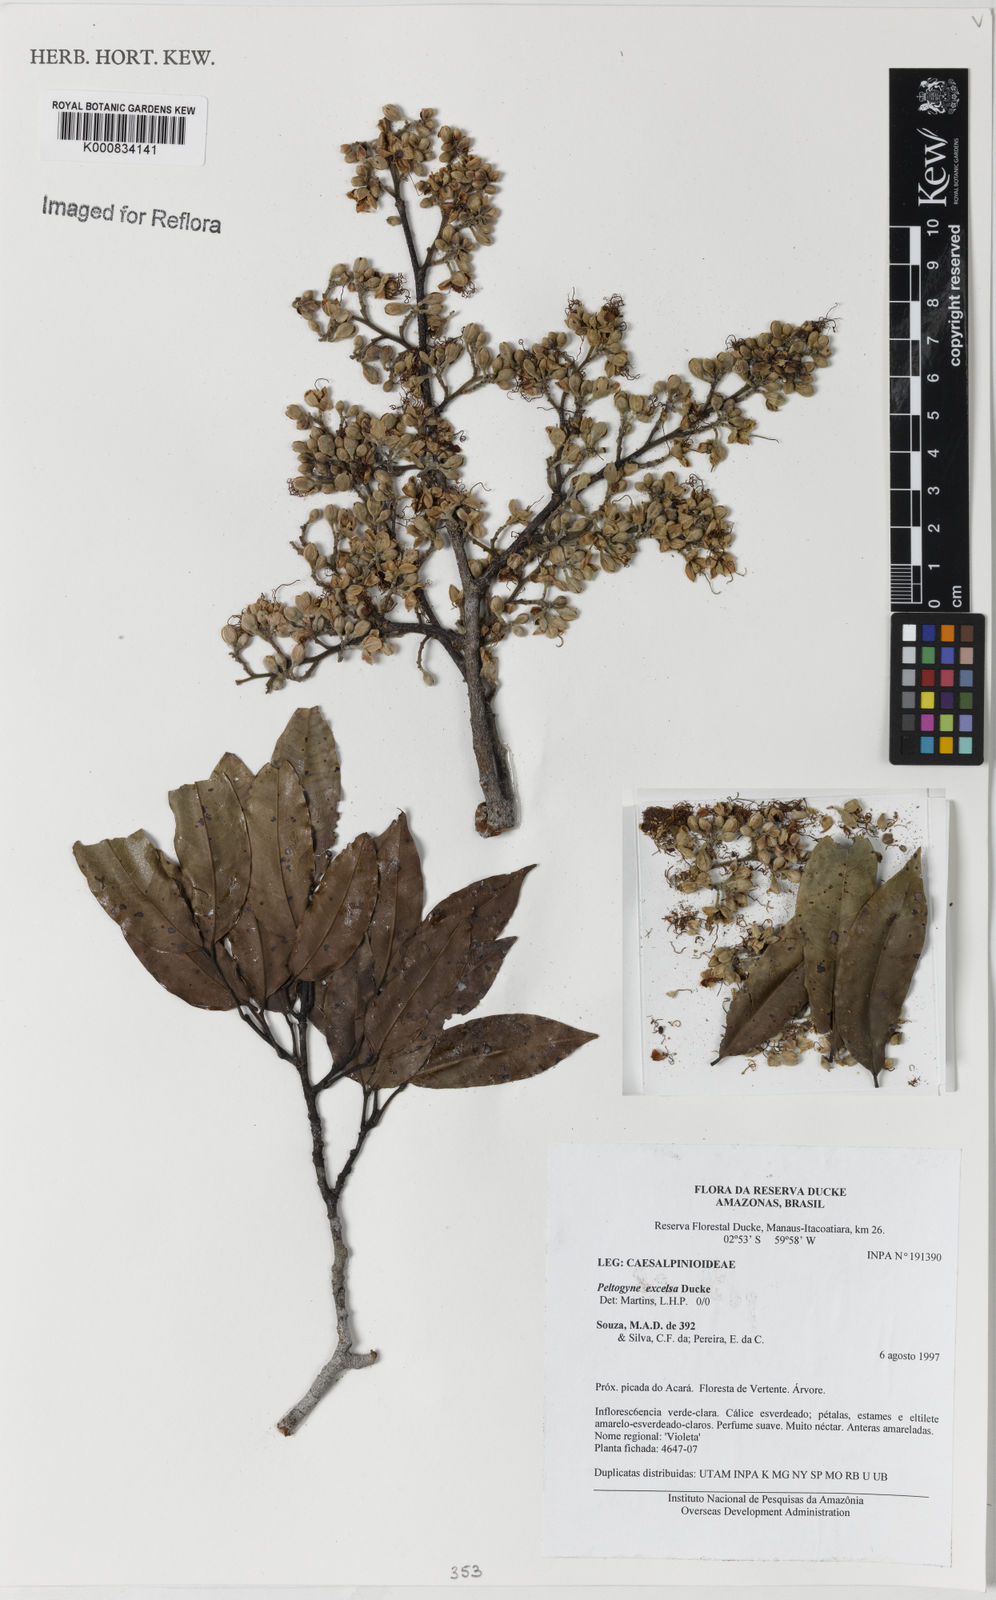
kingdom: Plantae
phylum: Tracheophyta
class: Magnoliopsida
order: Fabales
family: Fabaceae
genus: Peltogyne
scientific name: Peltogyne excelsa
